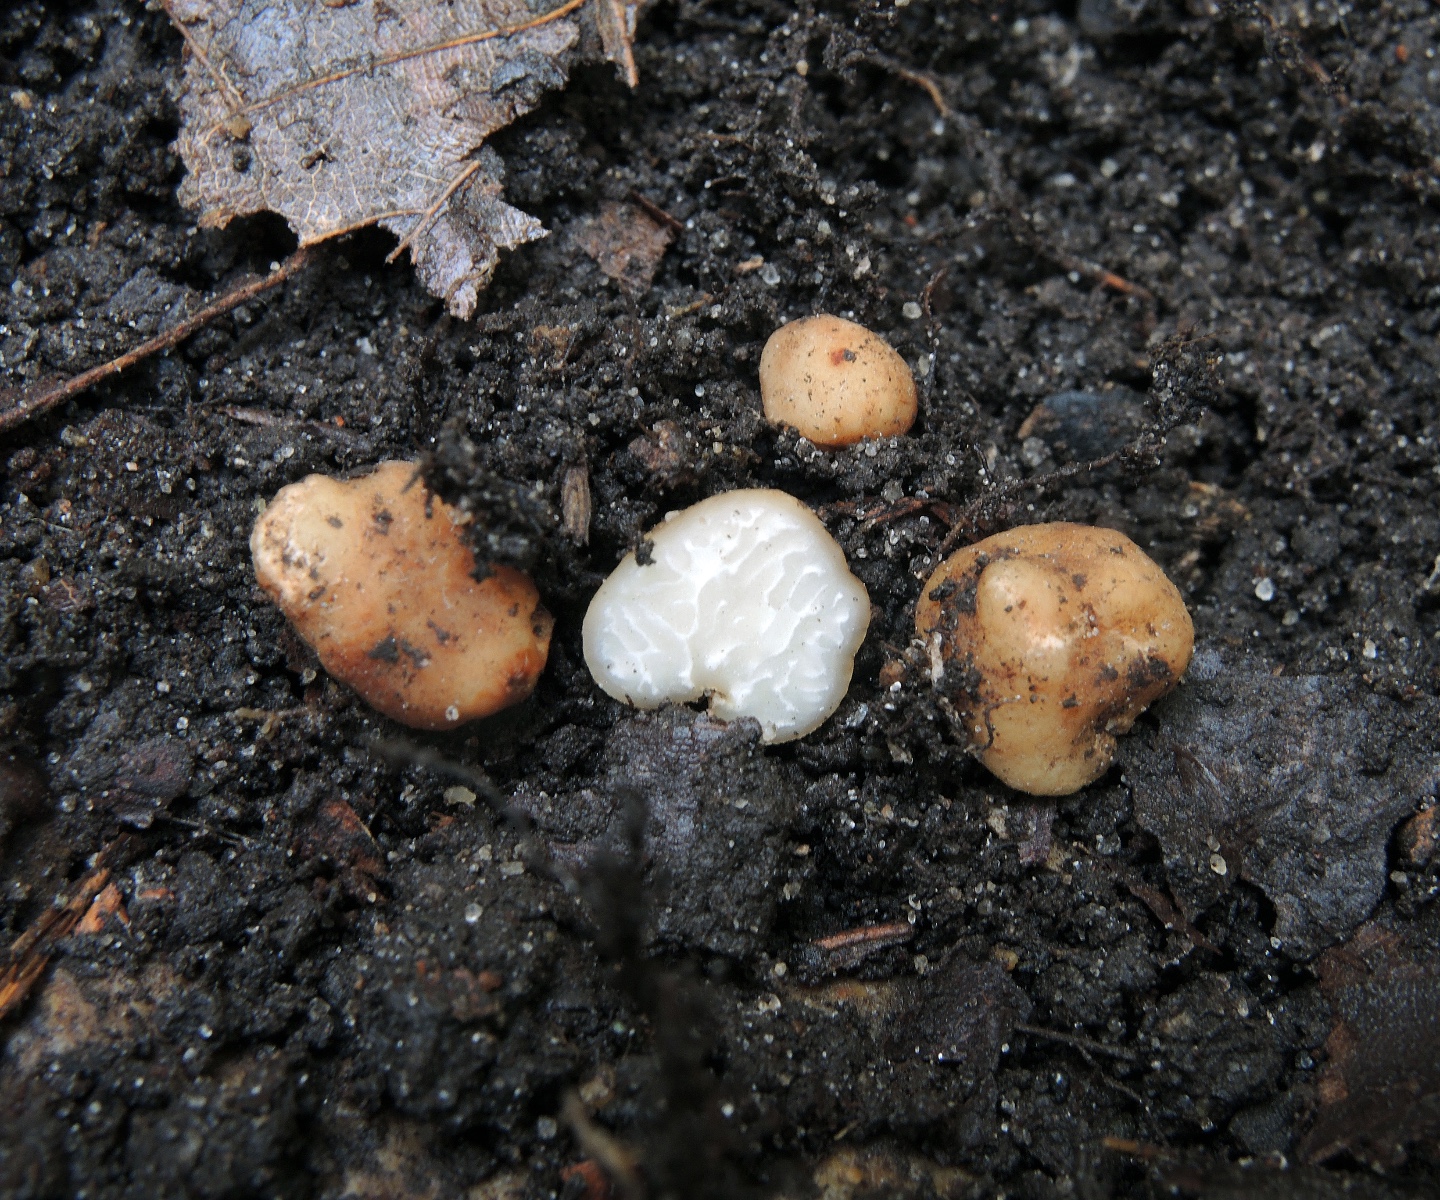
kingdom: Fungi
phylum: Ascomycota
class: Pezizomycetes
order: Pezizales
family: Tuberaceae
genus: Tuber
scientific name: Tuber rufum
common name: rødbrun trøffel
